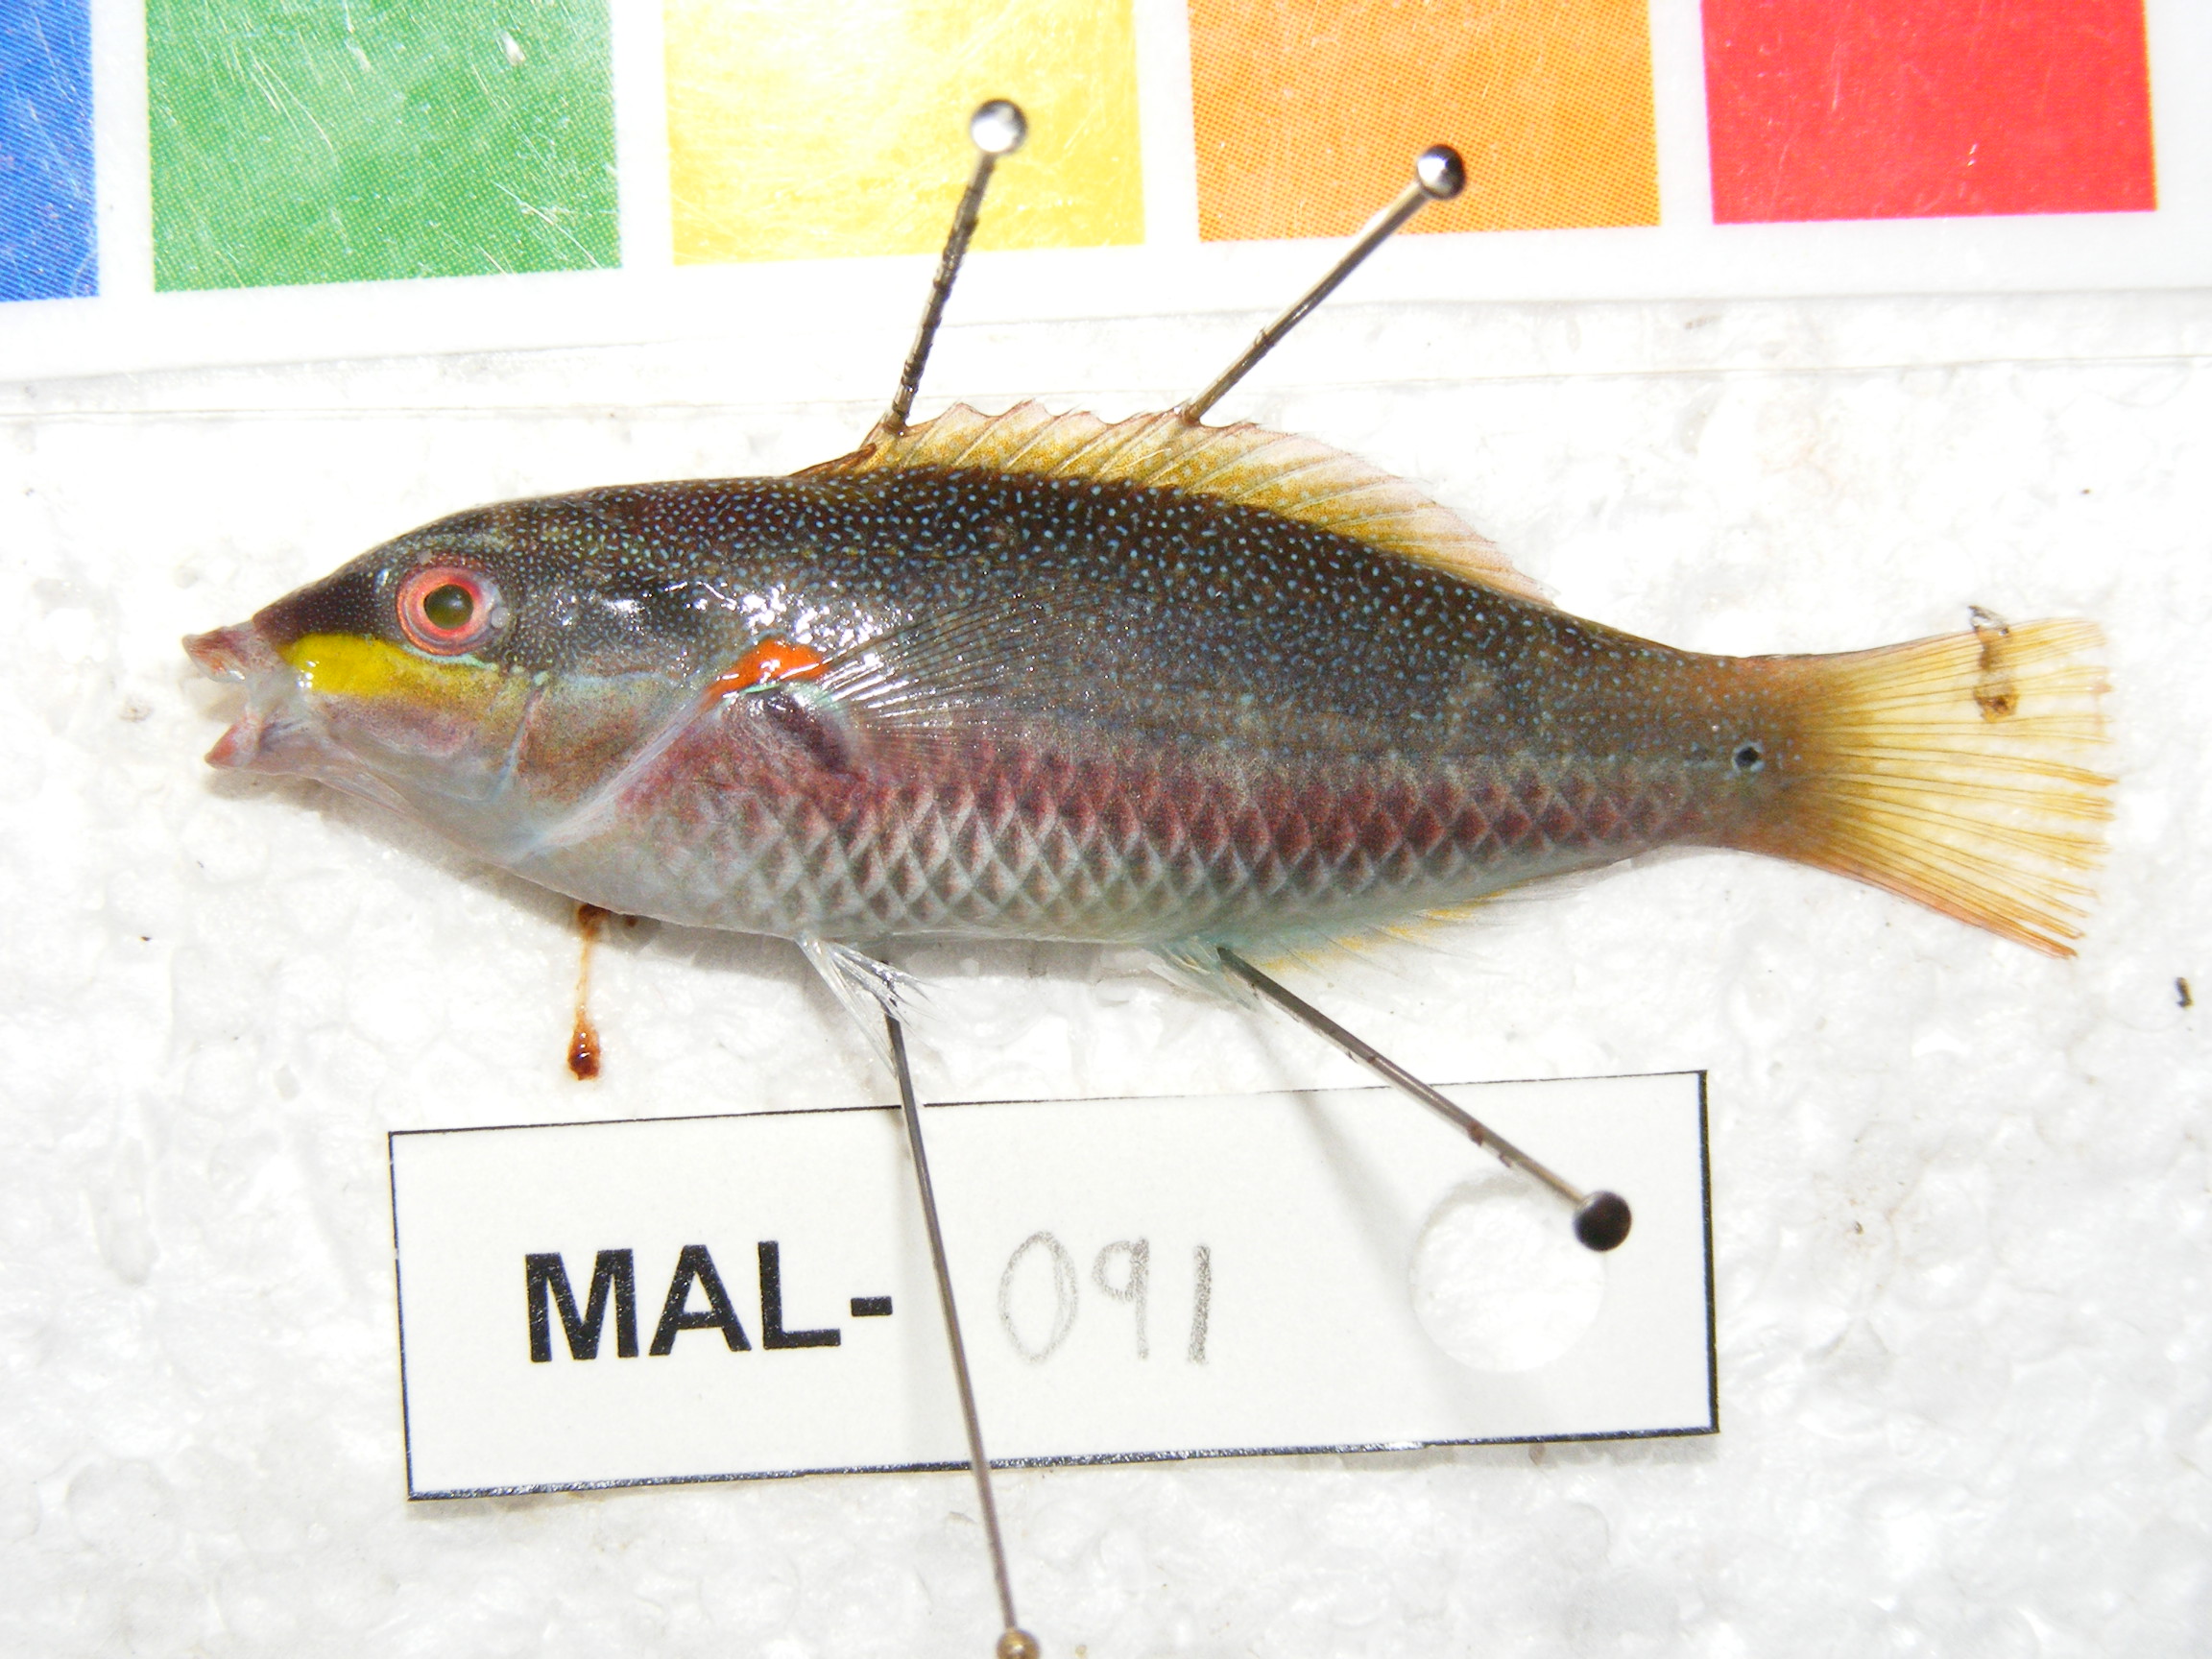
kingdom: Animalia
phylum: Chordata
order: Perciformes
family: Labridae
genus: Stethojulis
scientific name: Stethojulis albovittata
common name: Bluelined wrasse
